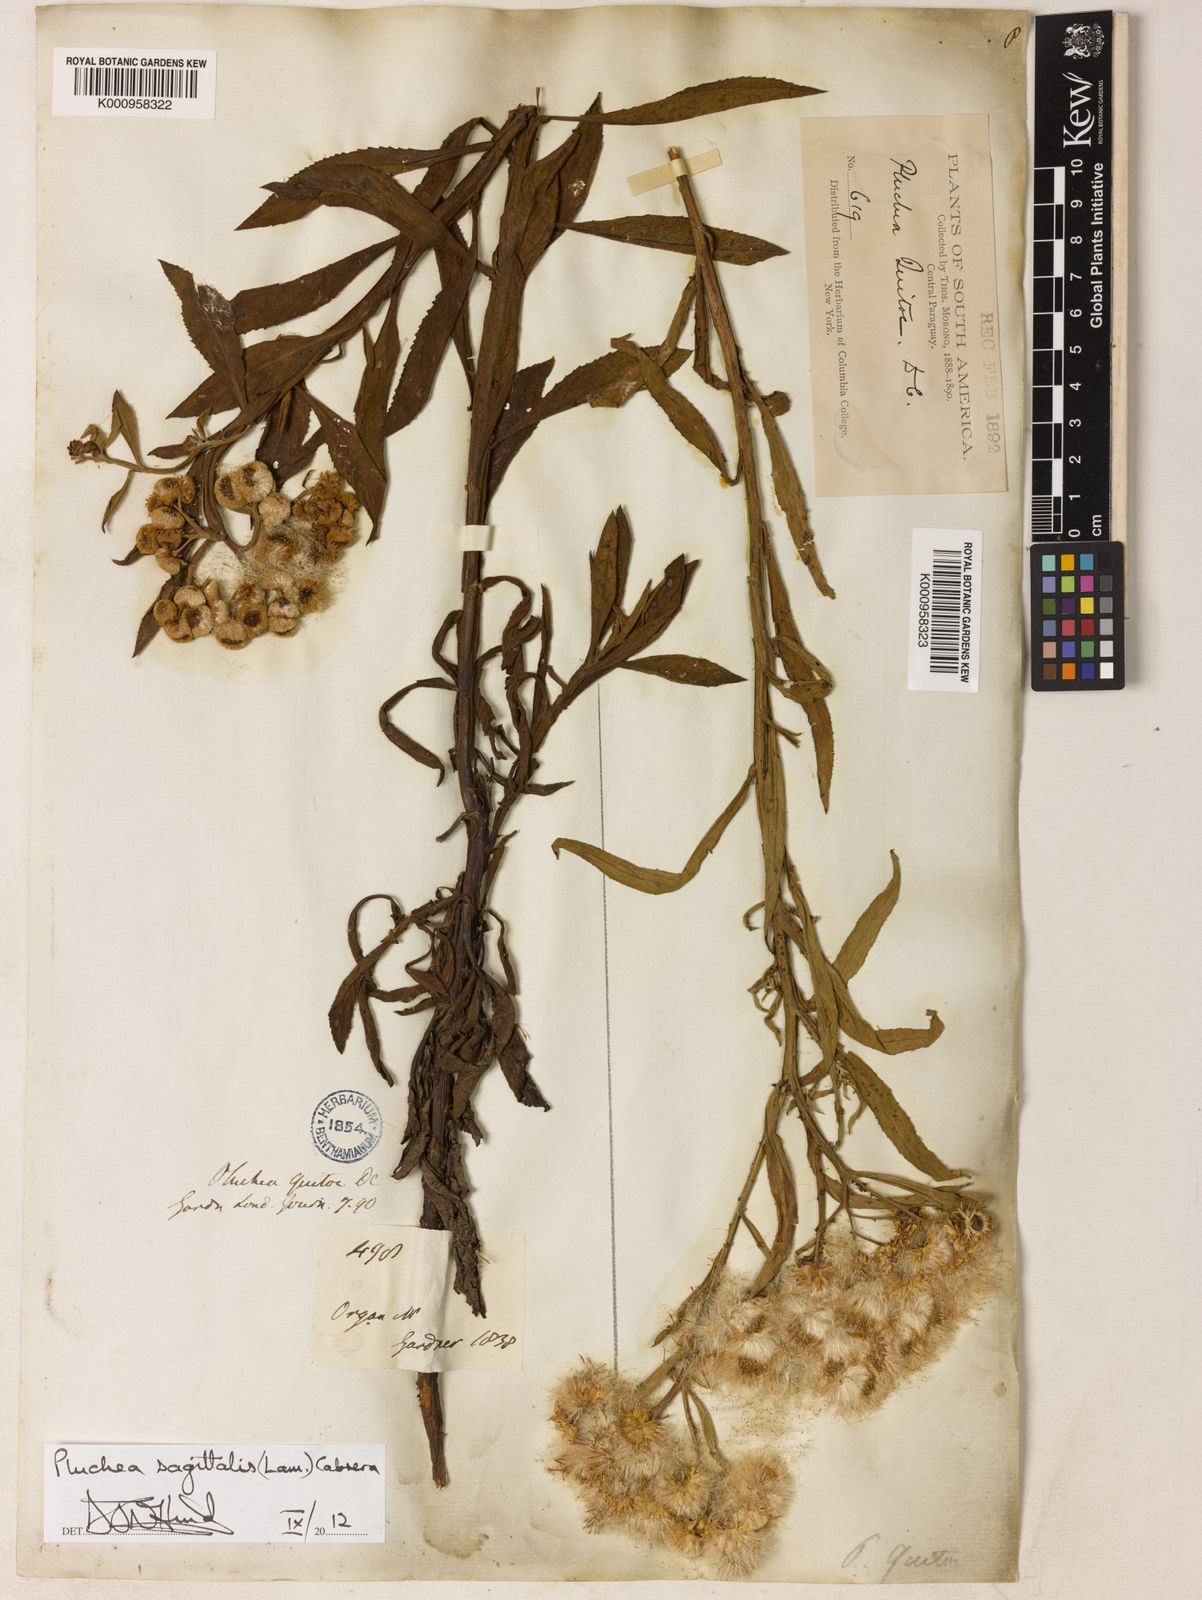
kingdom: Plantae
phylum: Tracheophyta
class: Magnoliopsida
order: Asterales
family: Asteraceae
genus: Pluchea
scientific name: Pluchea sagittalis
